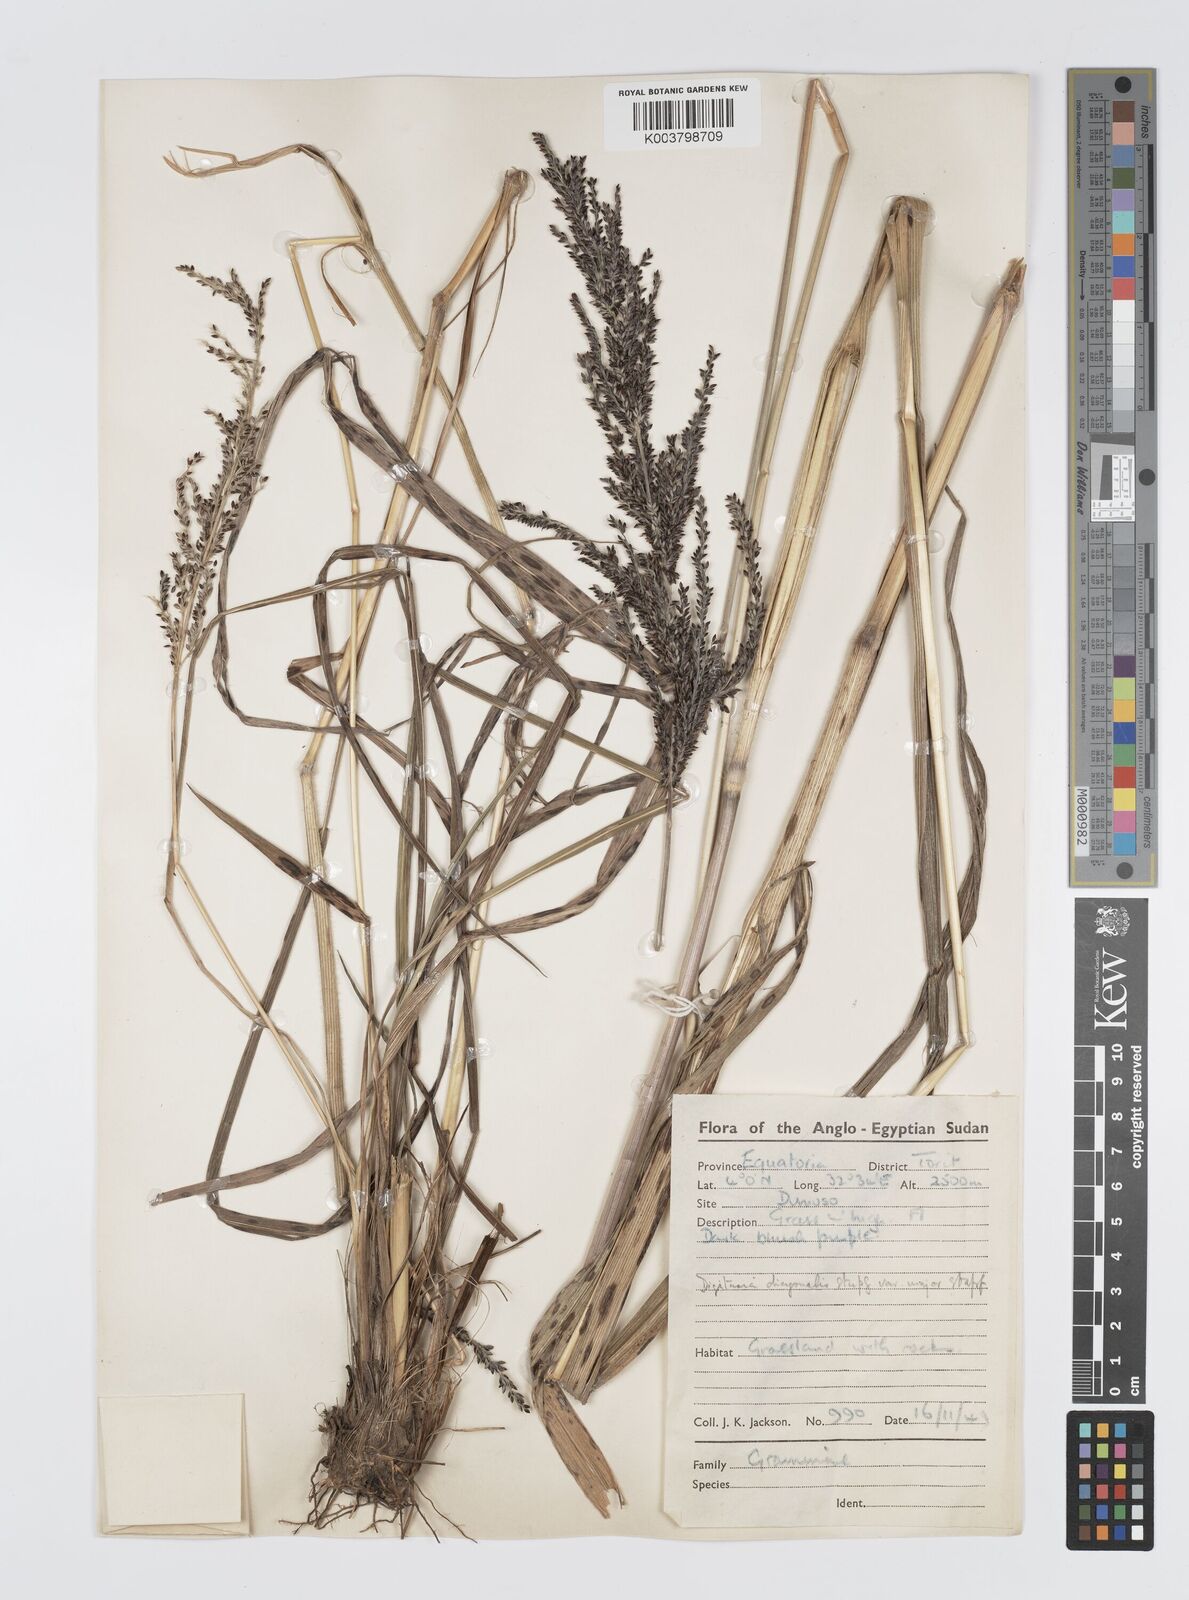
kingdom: Plantae
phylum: Tracheophyta
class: Liliopsida
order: Poales
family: Poaceae
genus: Digitaria
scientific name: Digitaria diagonalis
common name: Brown-seed finger grass
